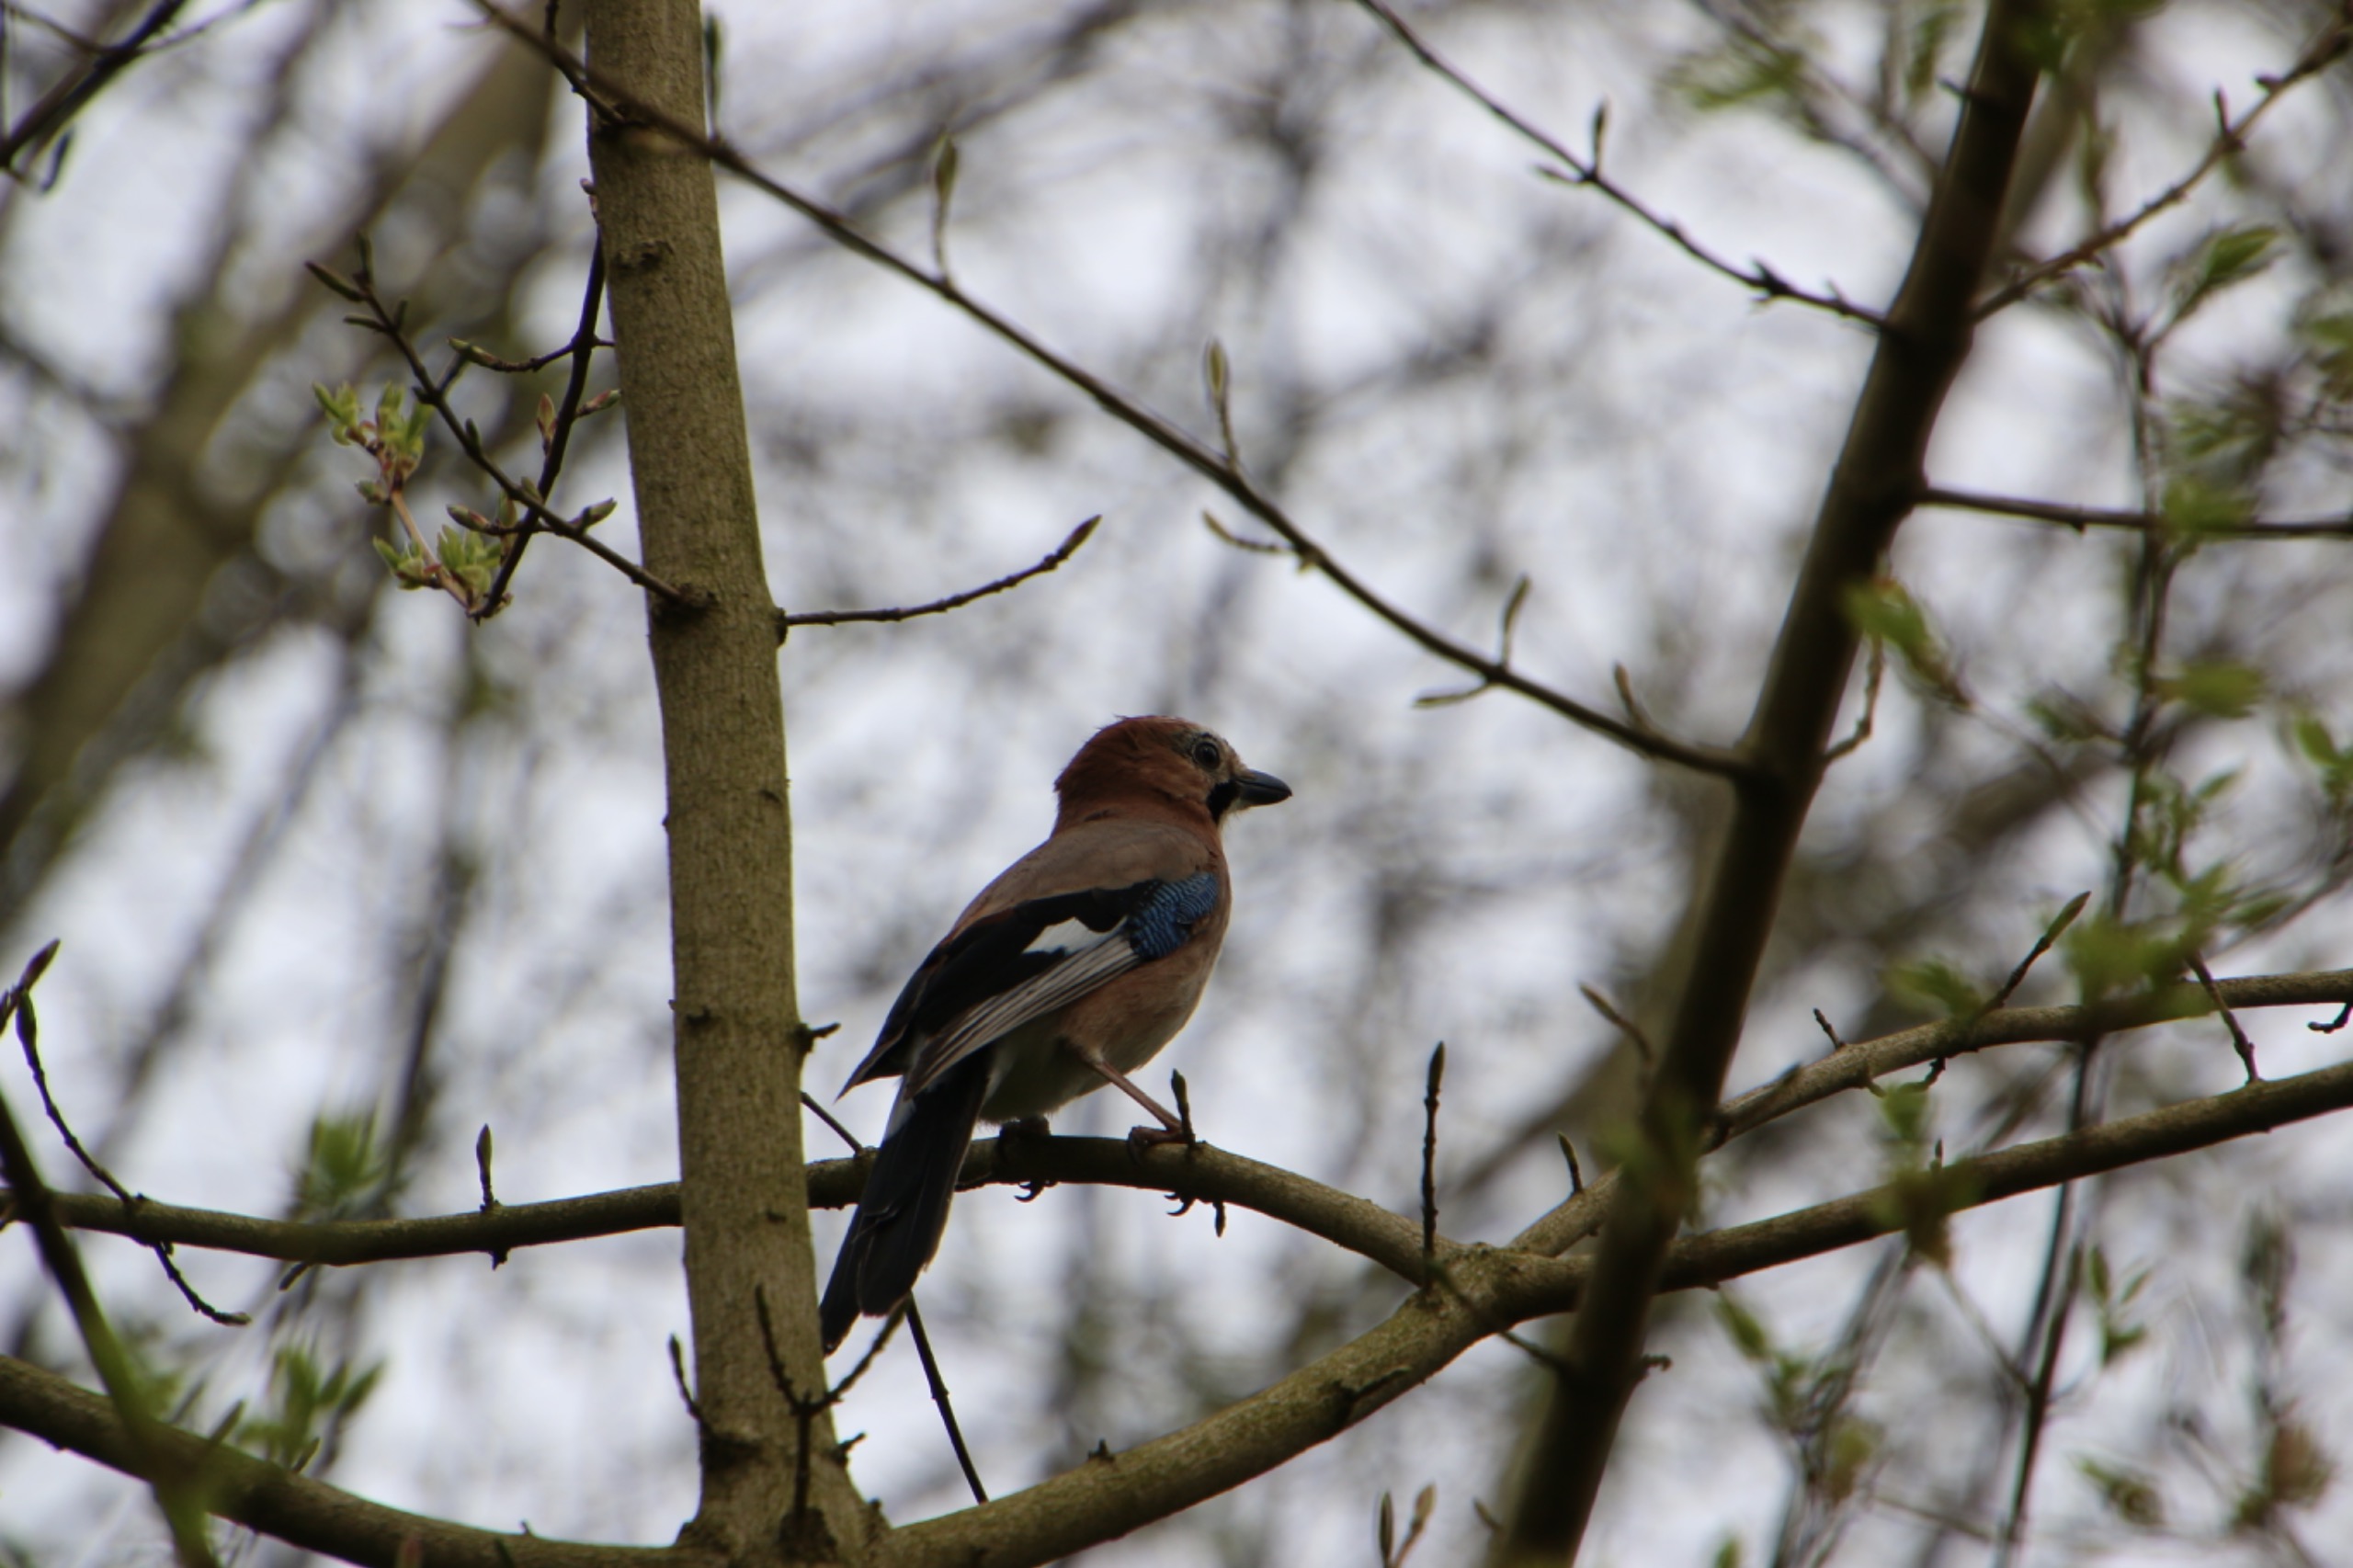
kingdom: Animalia
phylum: Chordata
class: Aves
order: Passeriformes
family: Corvidae
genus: Garrulus
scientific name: Garrulus glandarius
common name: Skovskade
